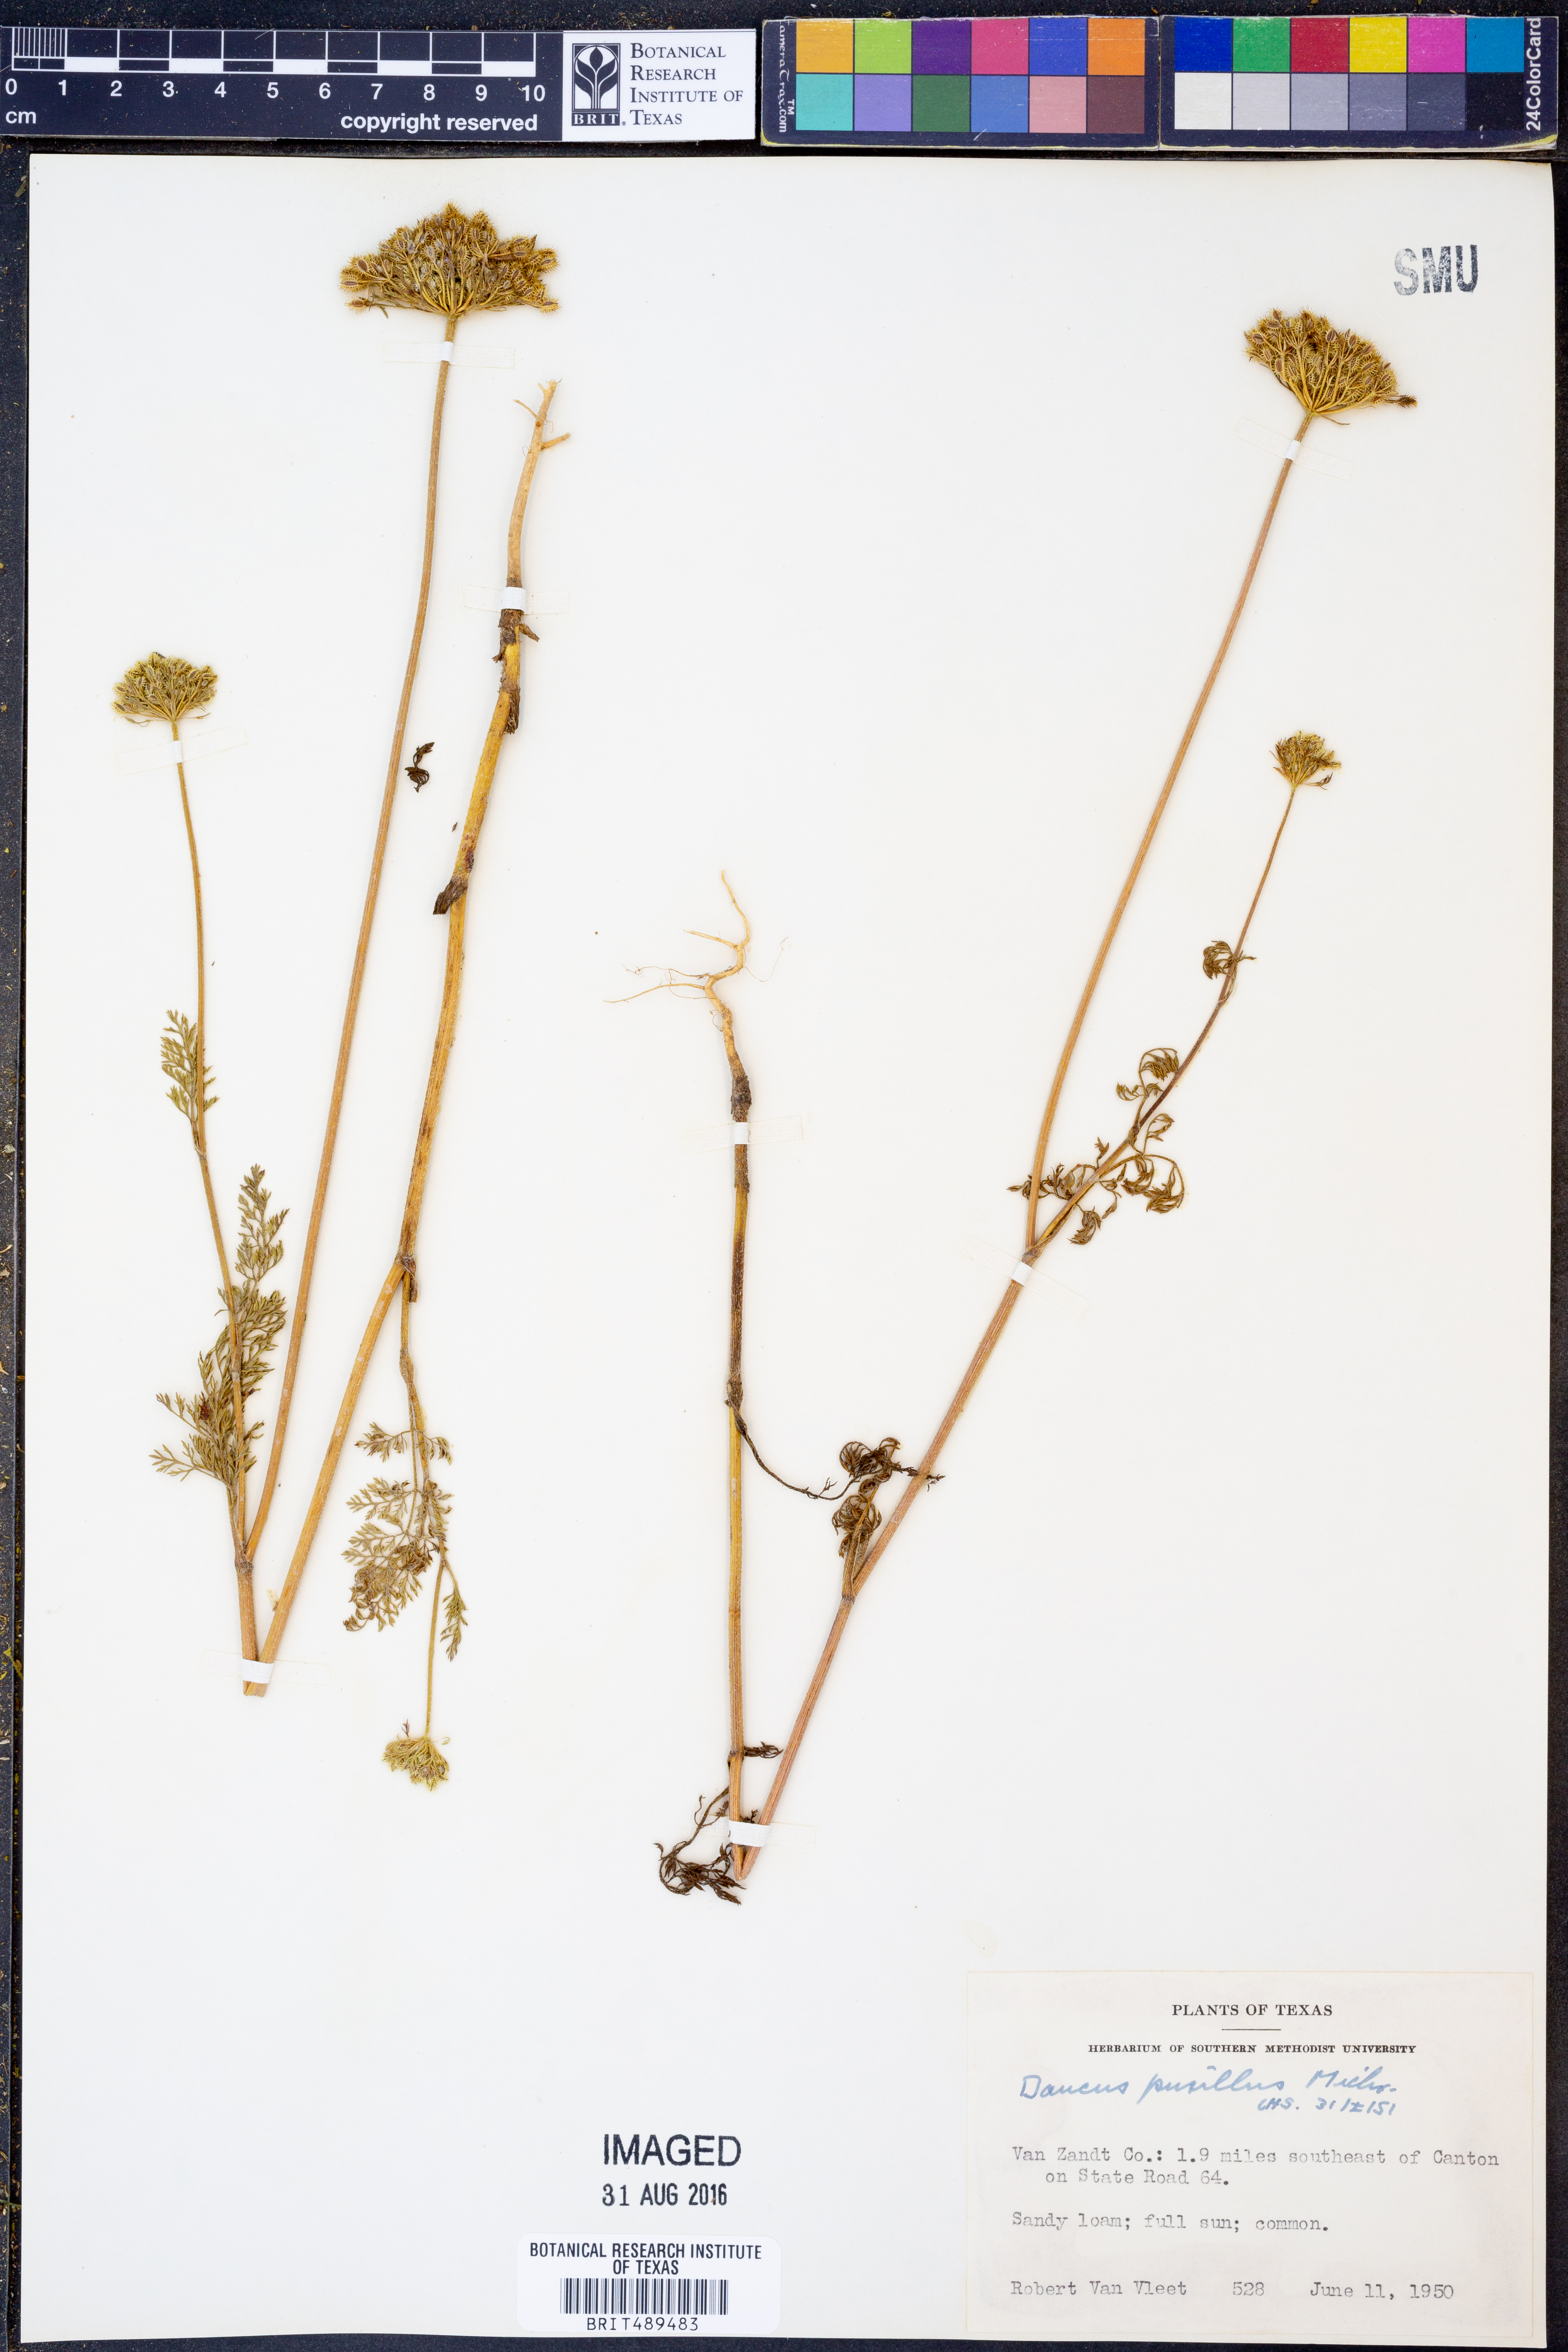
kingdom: Plantae
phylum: Tracheophyta
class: Magnoliopsida
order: Apiales
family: Apiaceae
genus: Daucus
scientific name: Daucus pusillus
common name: Southwest wild carrot
